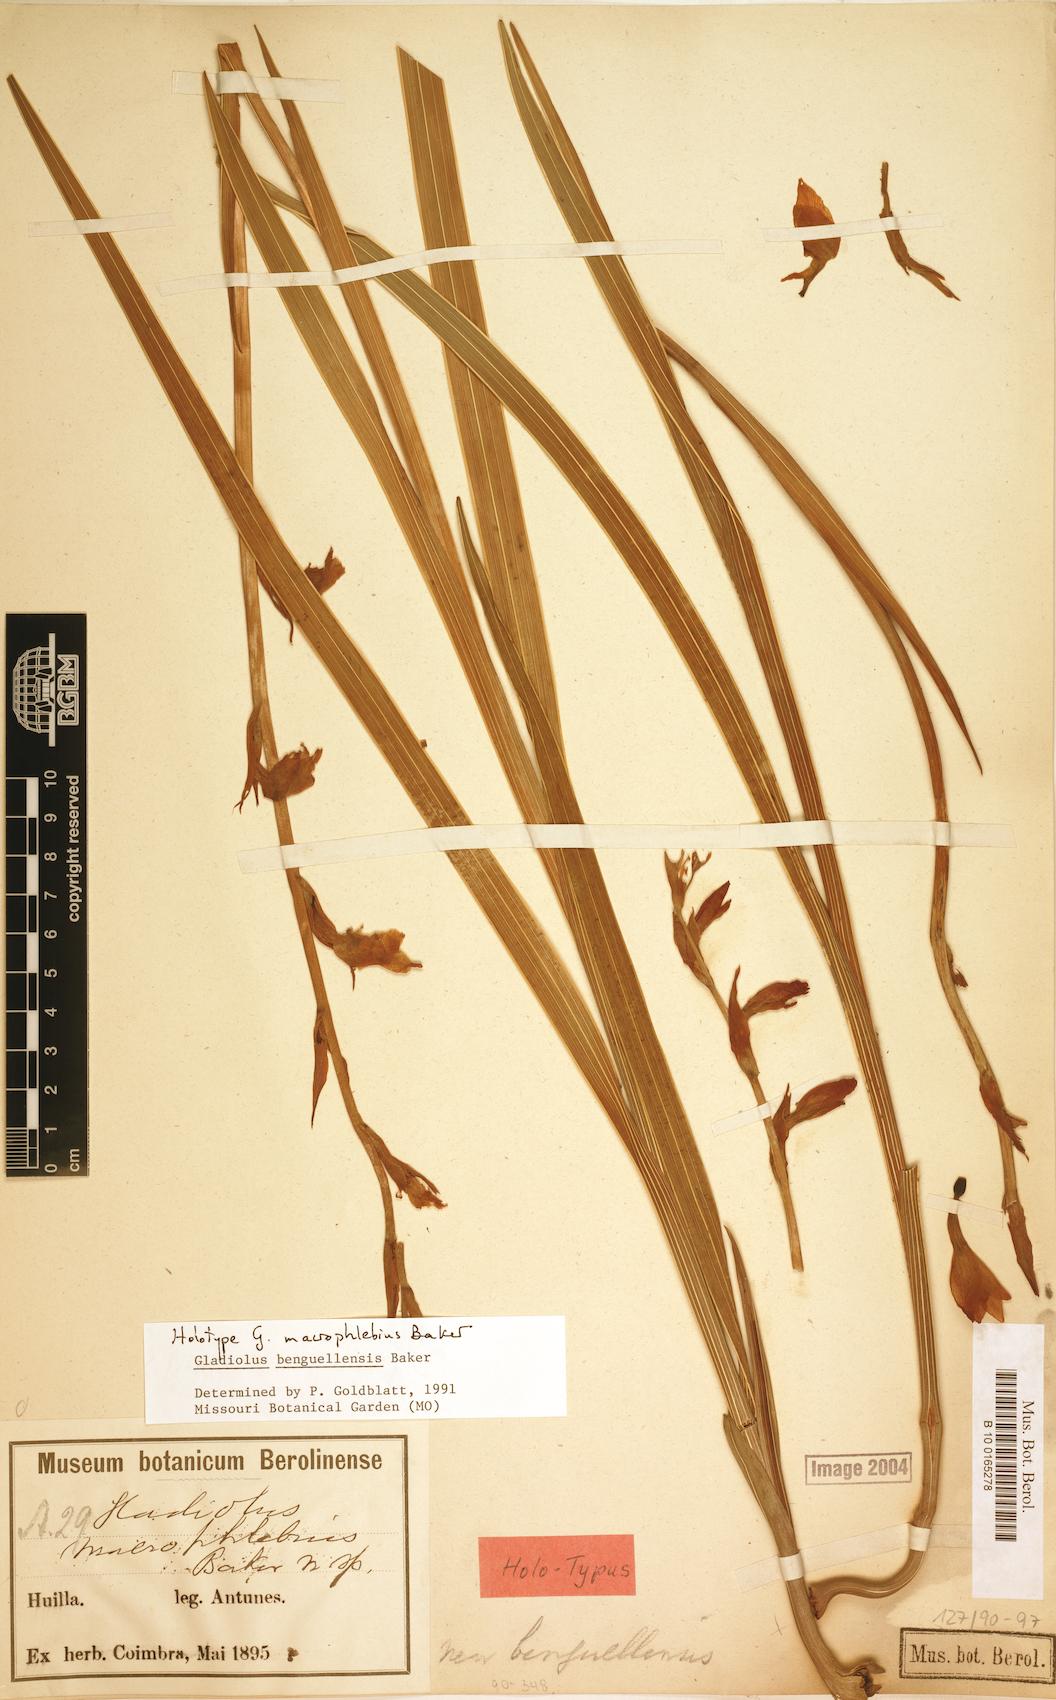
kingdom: Plantae
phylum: Tracheophyta
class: Liliopsida
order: Asparagales
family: Iridaceae
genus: Gladiolus
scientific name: Gladiolus benguellensis
